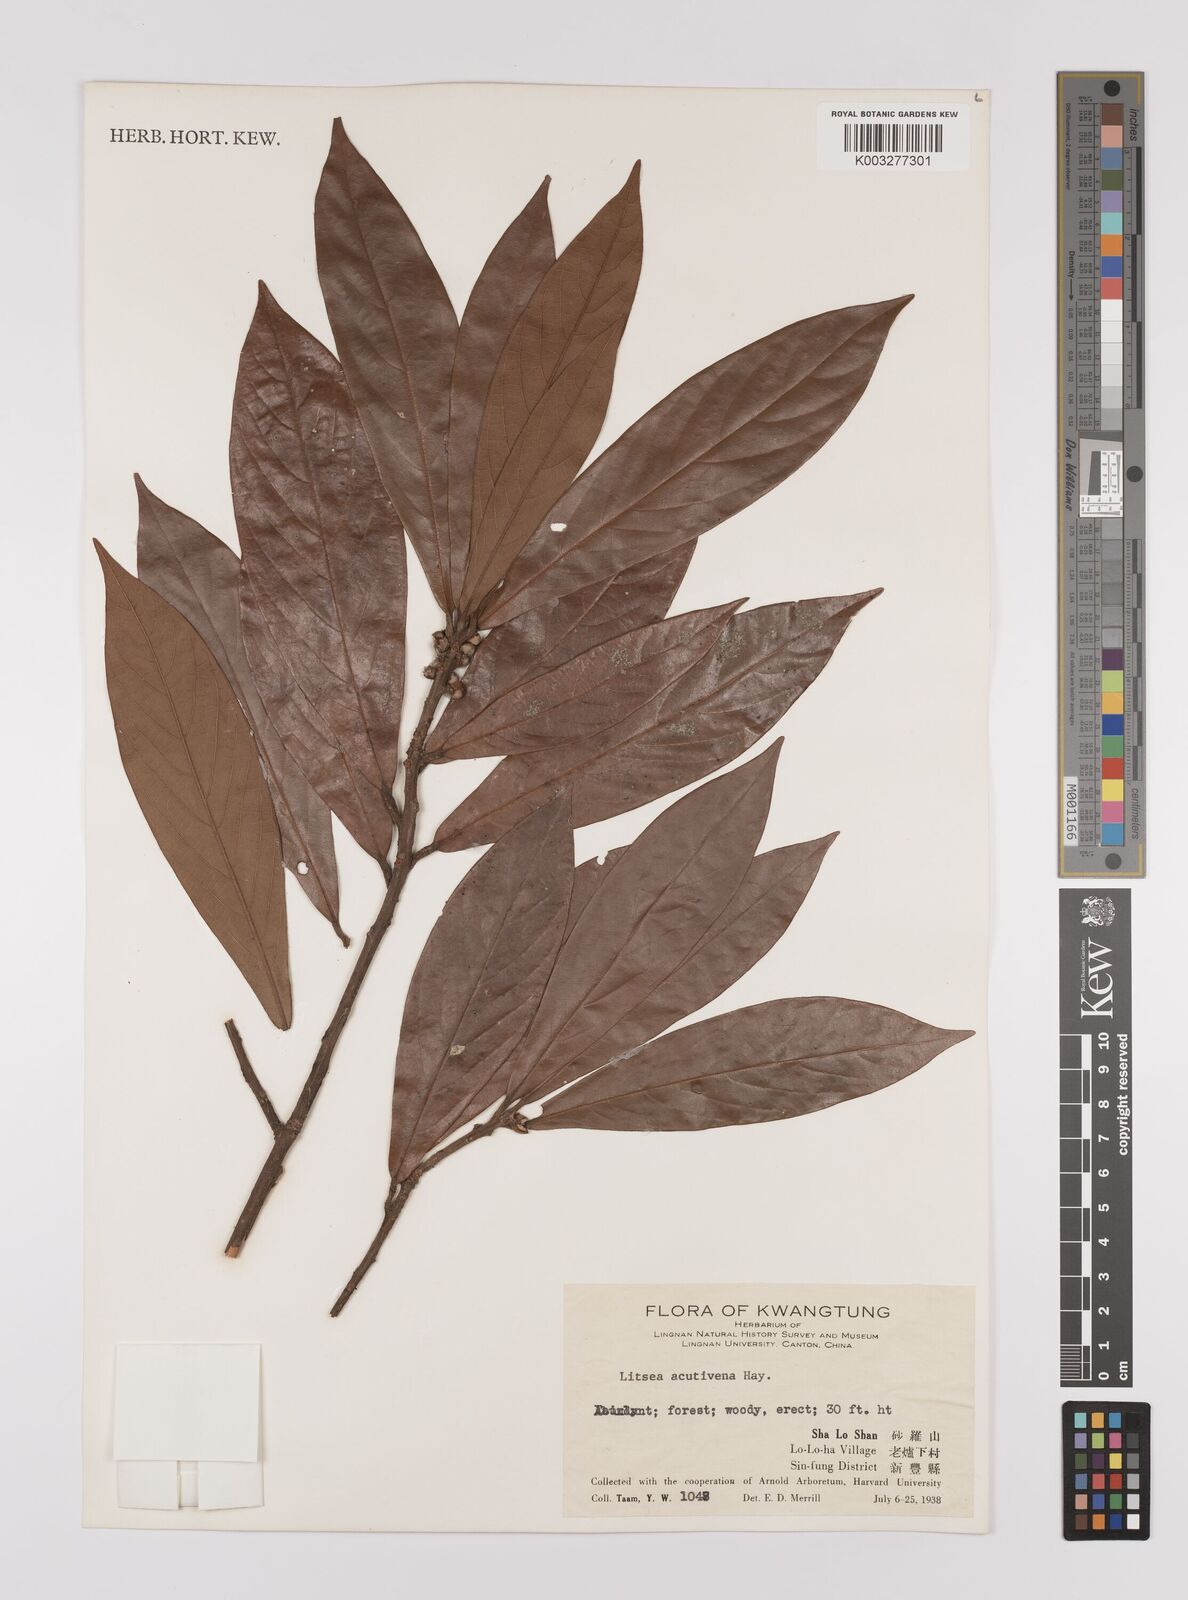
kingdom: Plantae
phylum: Tracheophyta
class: Magnoliopsida
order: Laurales
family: Lauraceae
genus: Litsea
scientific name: Litsea elongata
